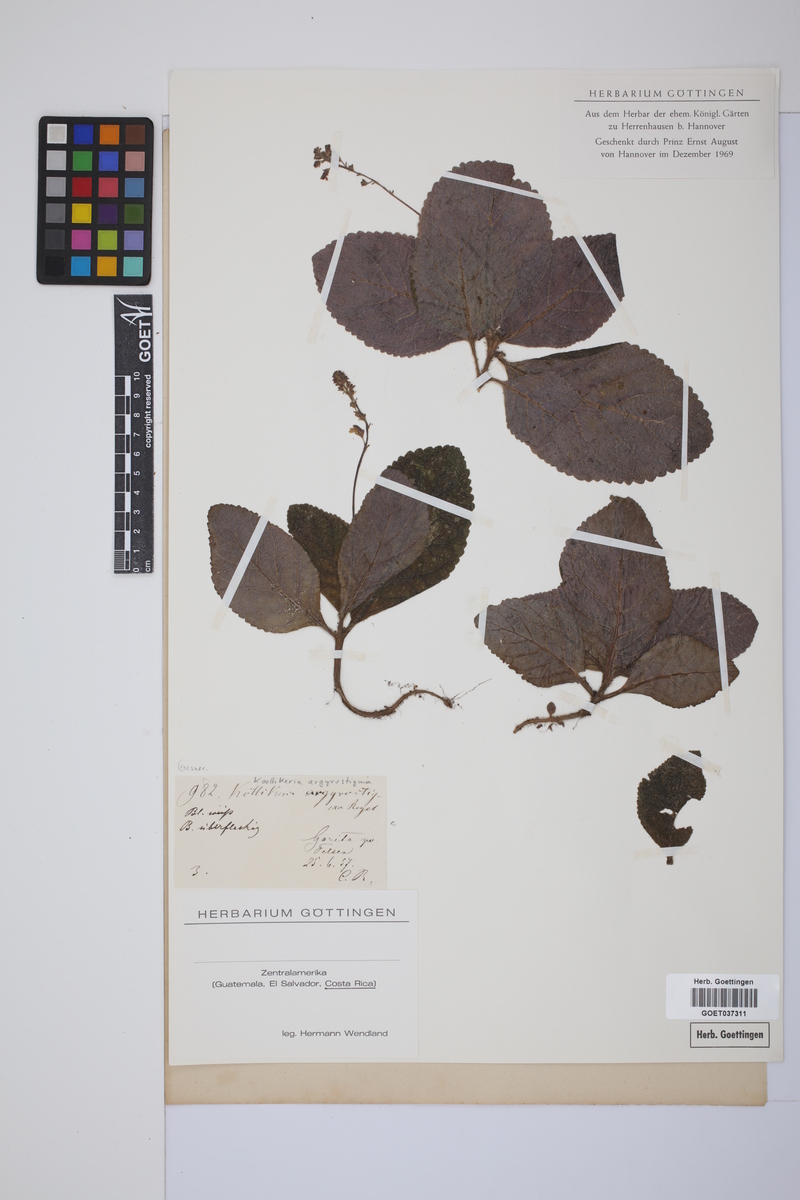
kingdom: Plantae
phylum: Tracheophyta
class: Magnoliopsida
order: Lamiales
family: Gesneriaceae
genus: Gloxinia
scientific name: Gloxinia erinoides
